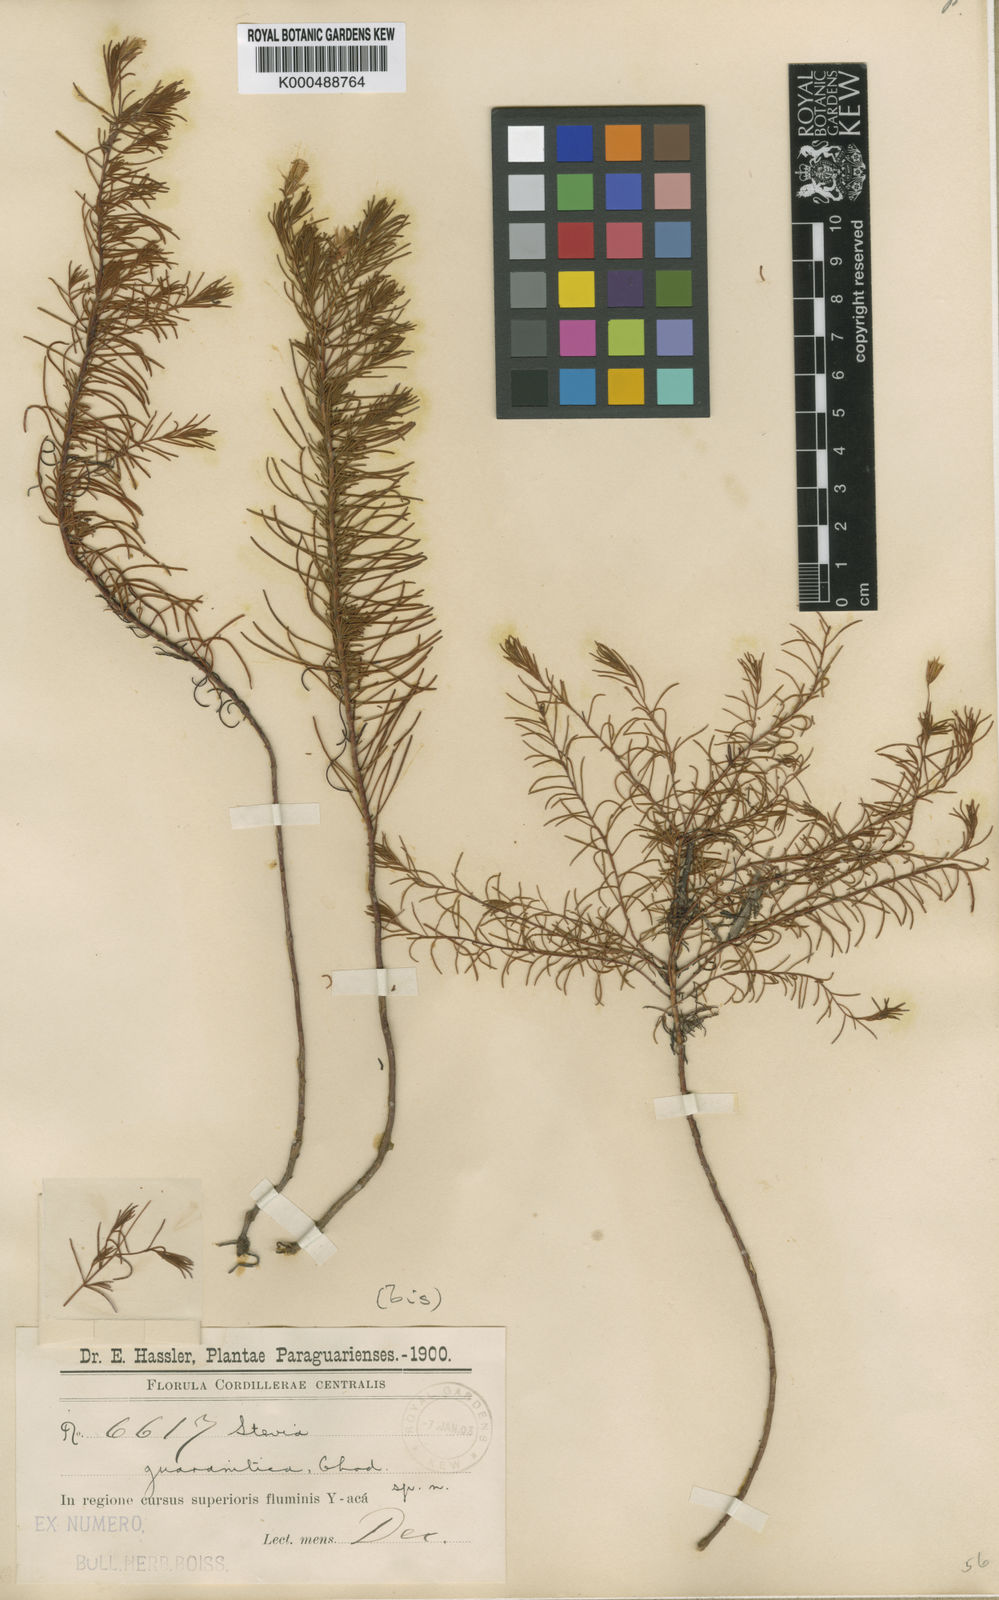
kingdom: Plantae
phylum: Tracheophyta
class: Magnoliopsida
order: Asterales
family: Asteraceae
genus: Stevia
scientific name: Stevia leptophylla
